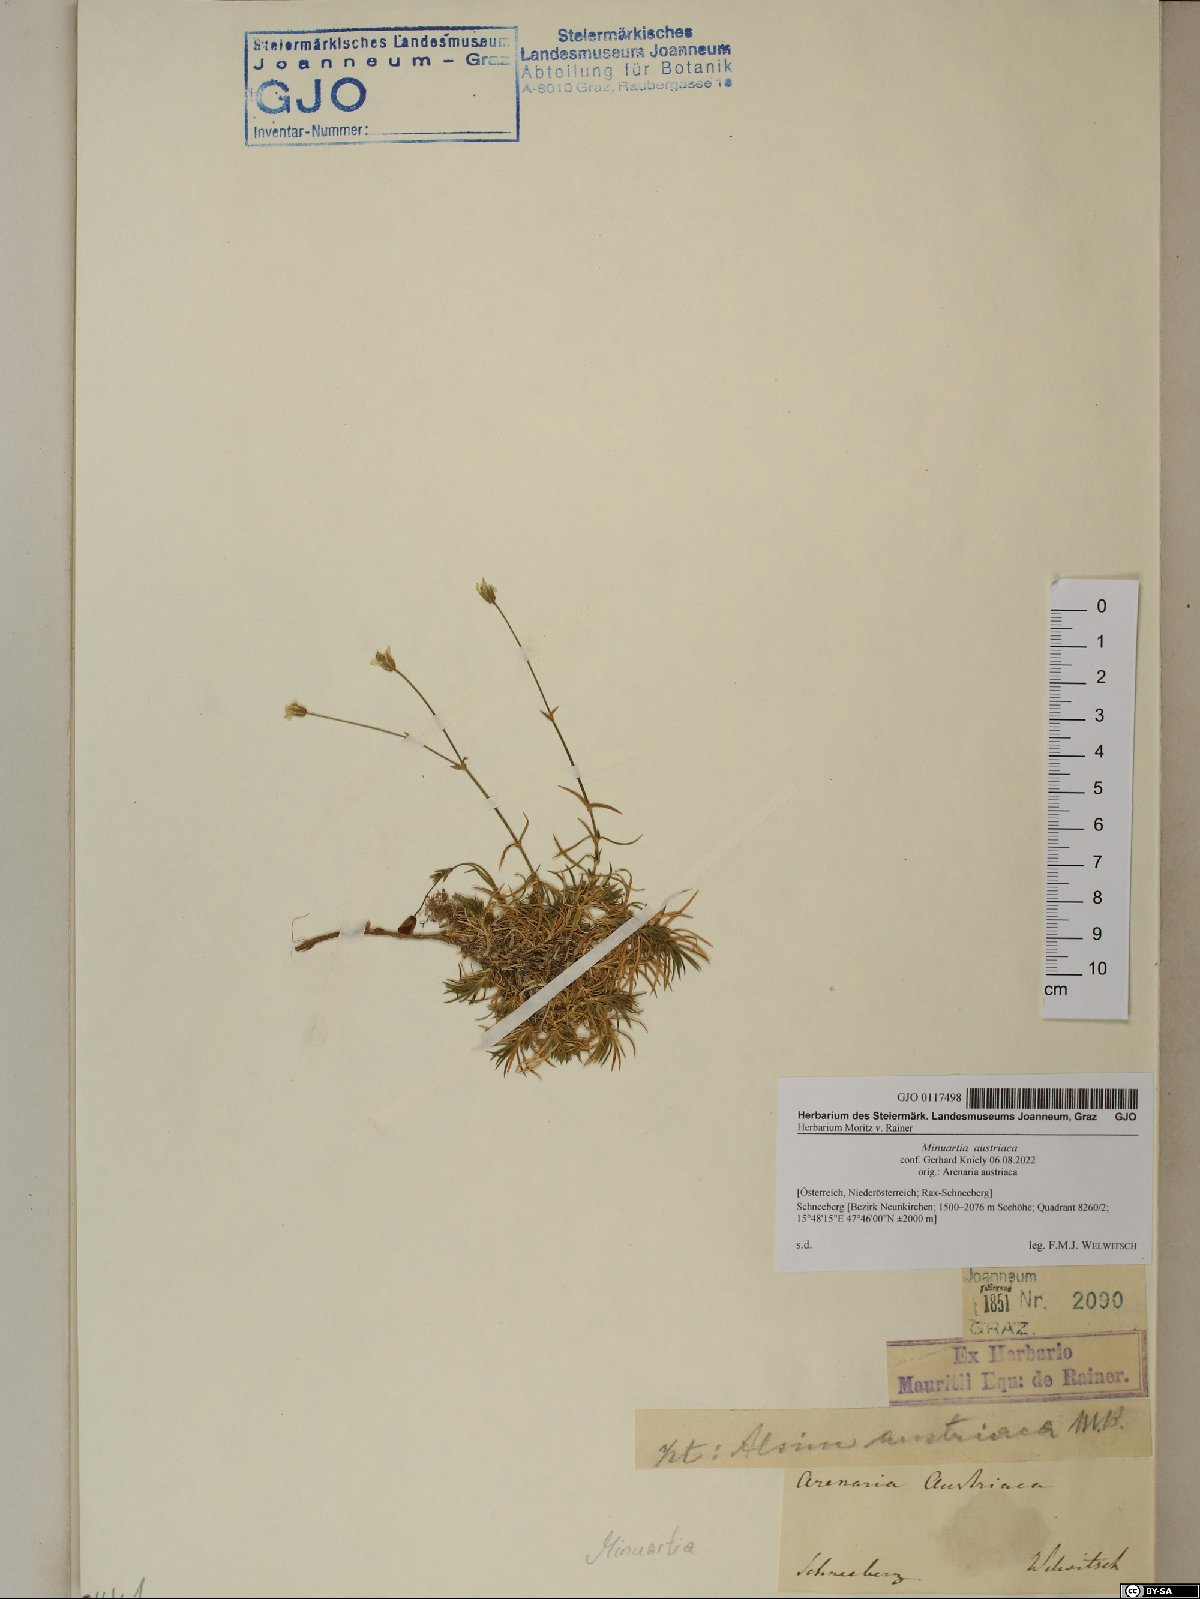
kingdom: Plantae
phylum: Tracheophyta
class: Magnoliopsida
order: Caryophyllales
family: Caryophyllaceae
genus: Sabulina
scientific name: Sabulina austriaca
